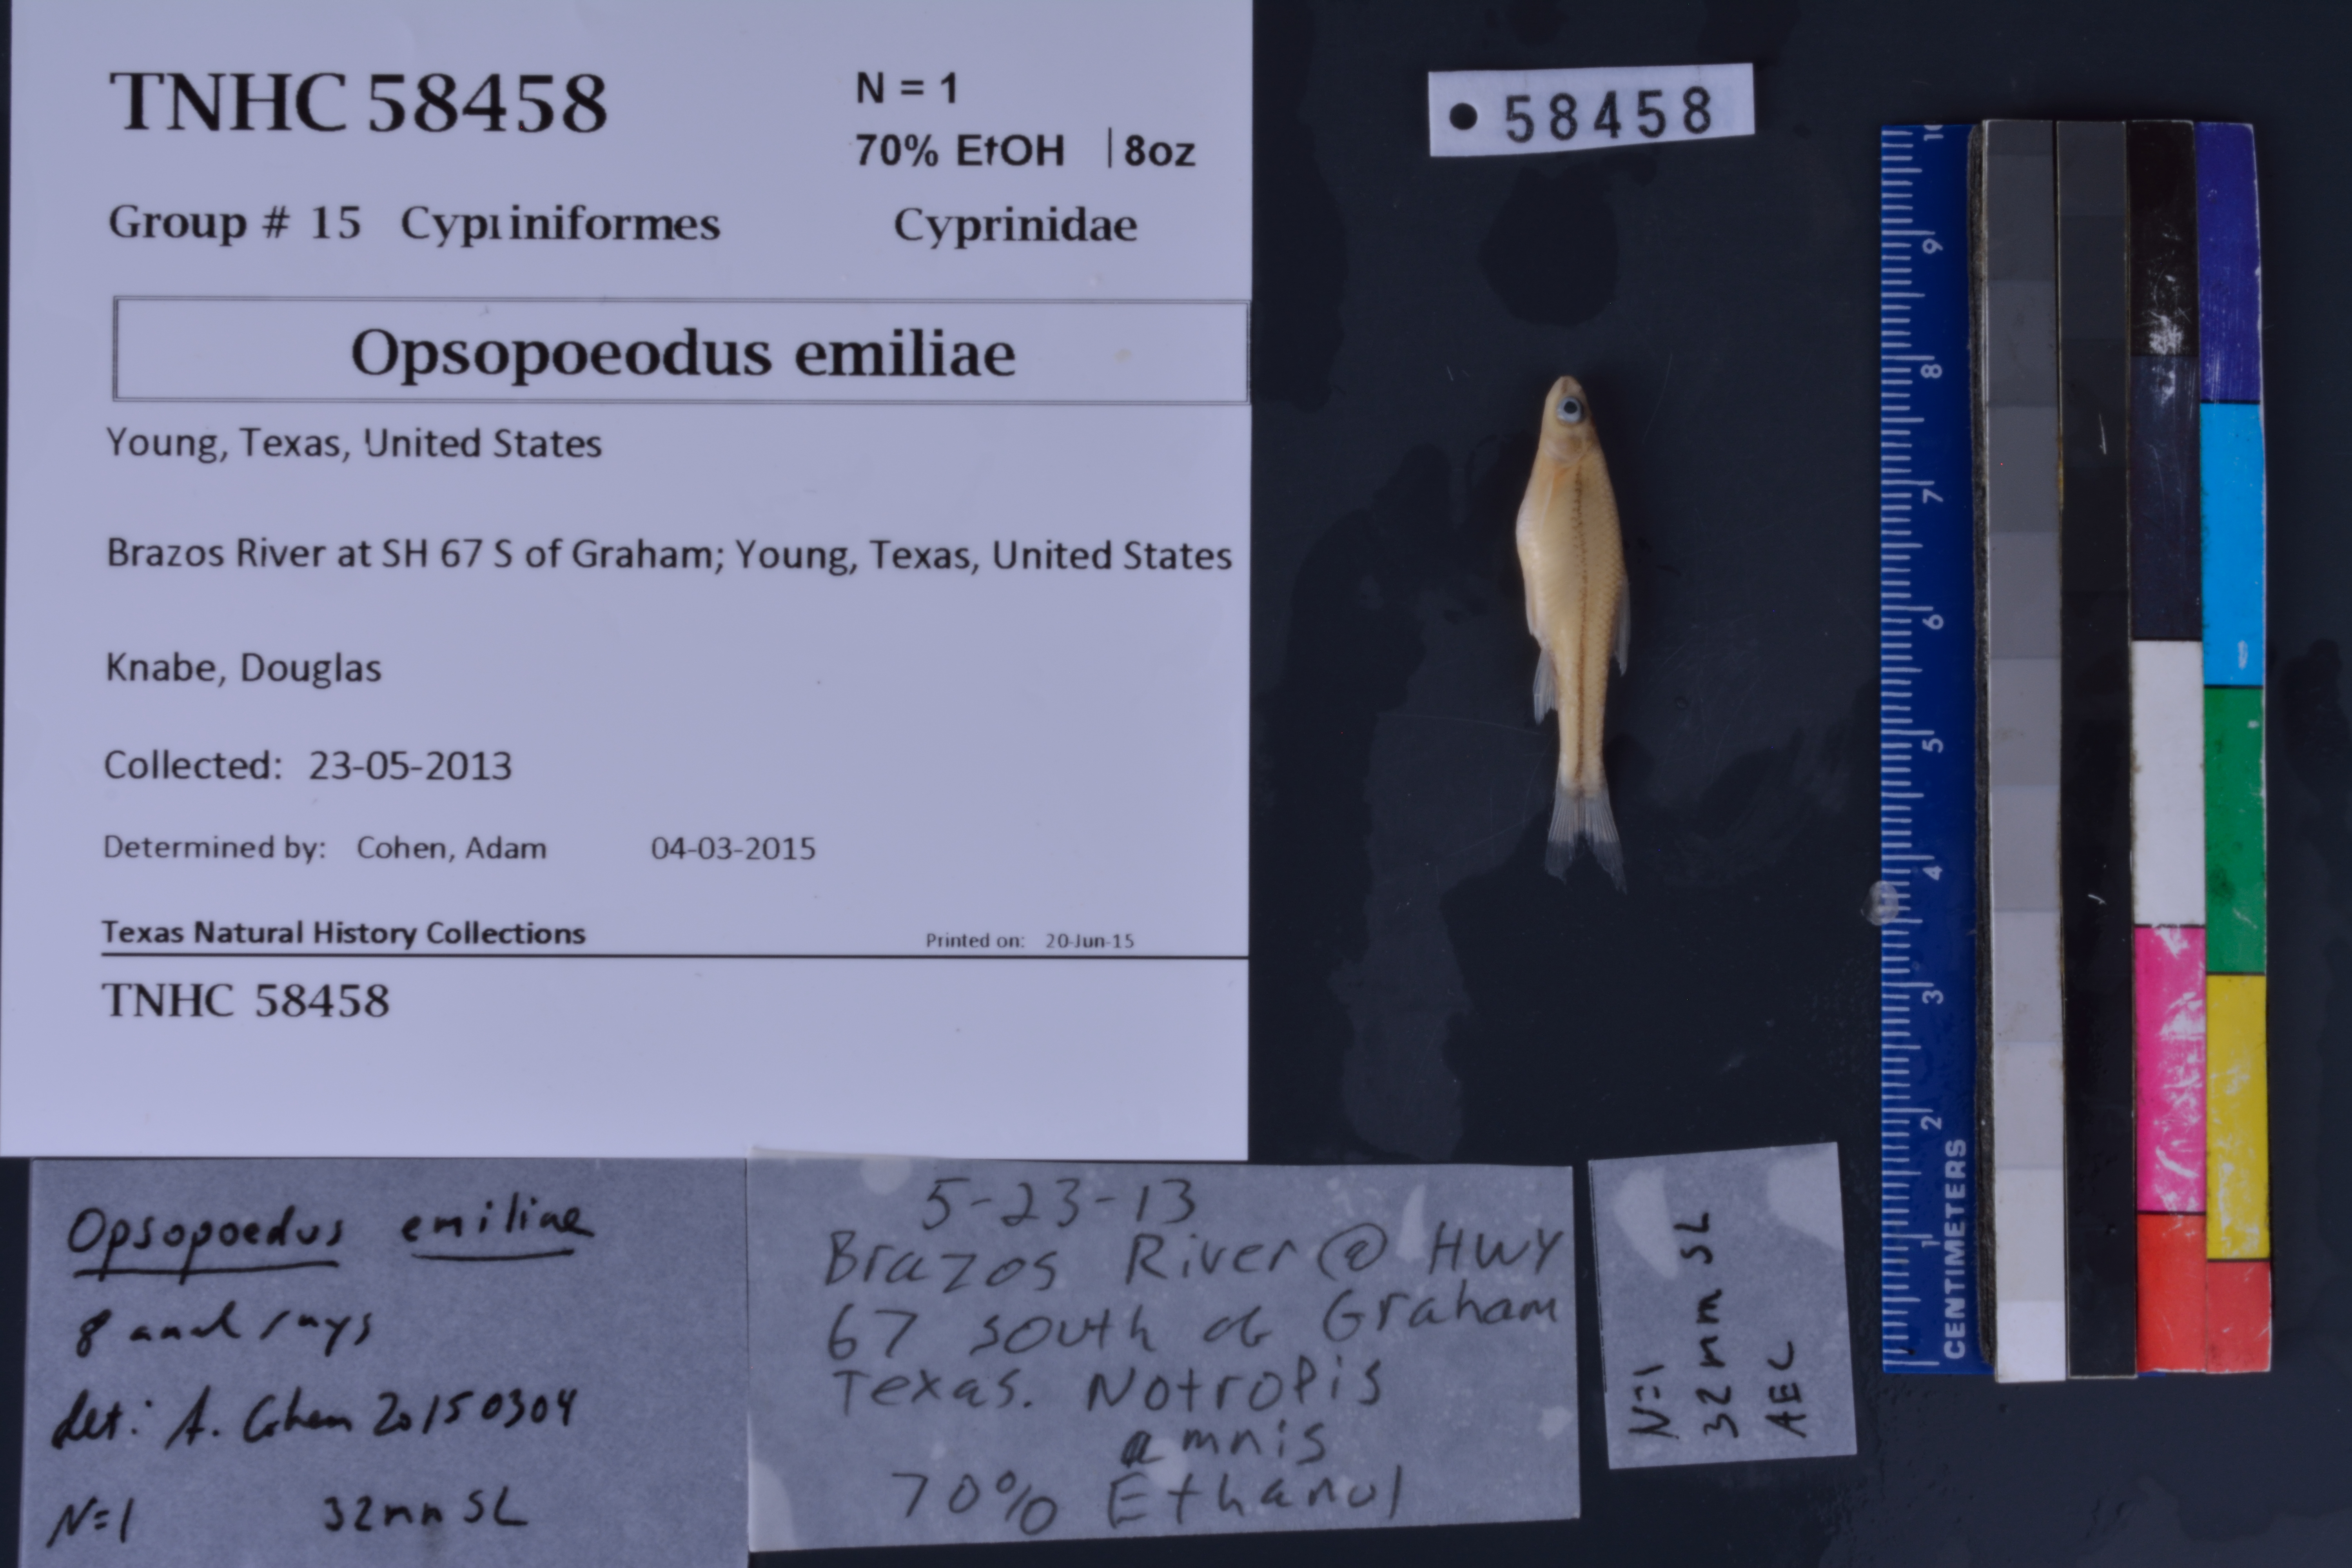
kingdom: Animalia
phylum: Chordata
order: Cypriniformes
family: Cyprinidae
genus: Opsopoeodus
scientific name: Opsopoeodus emiliae
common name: Pugnose minnow
